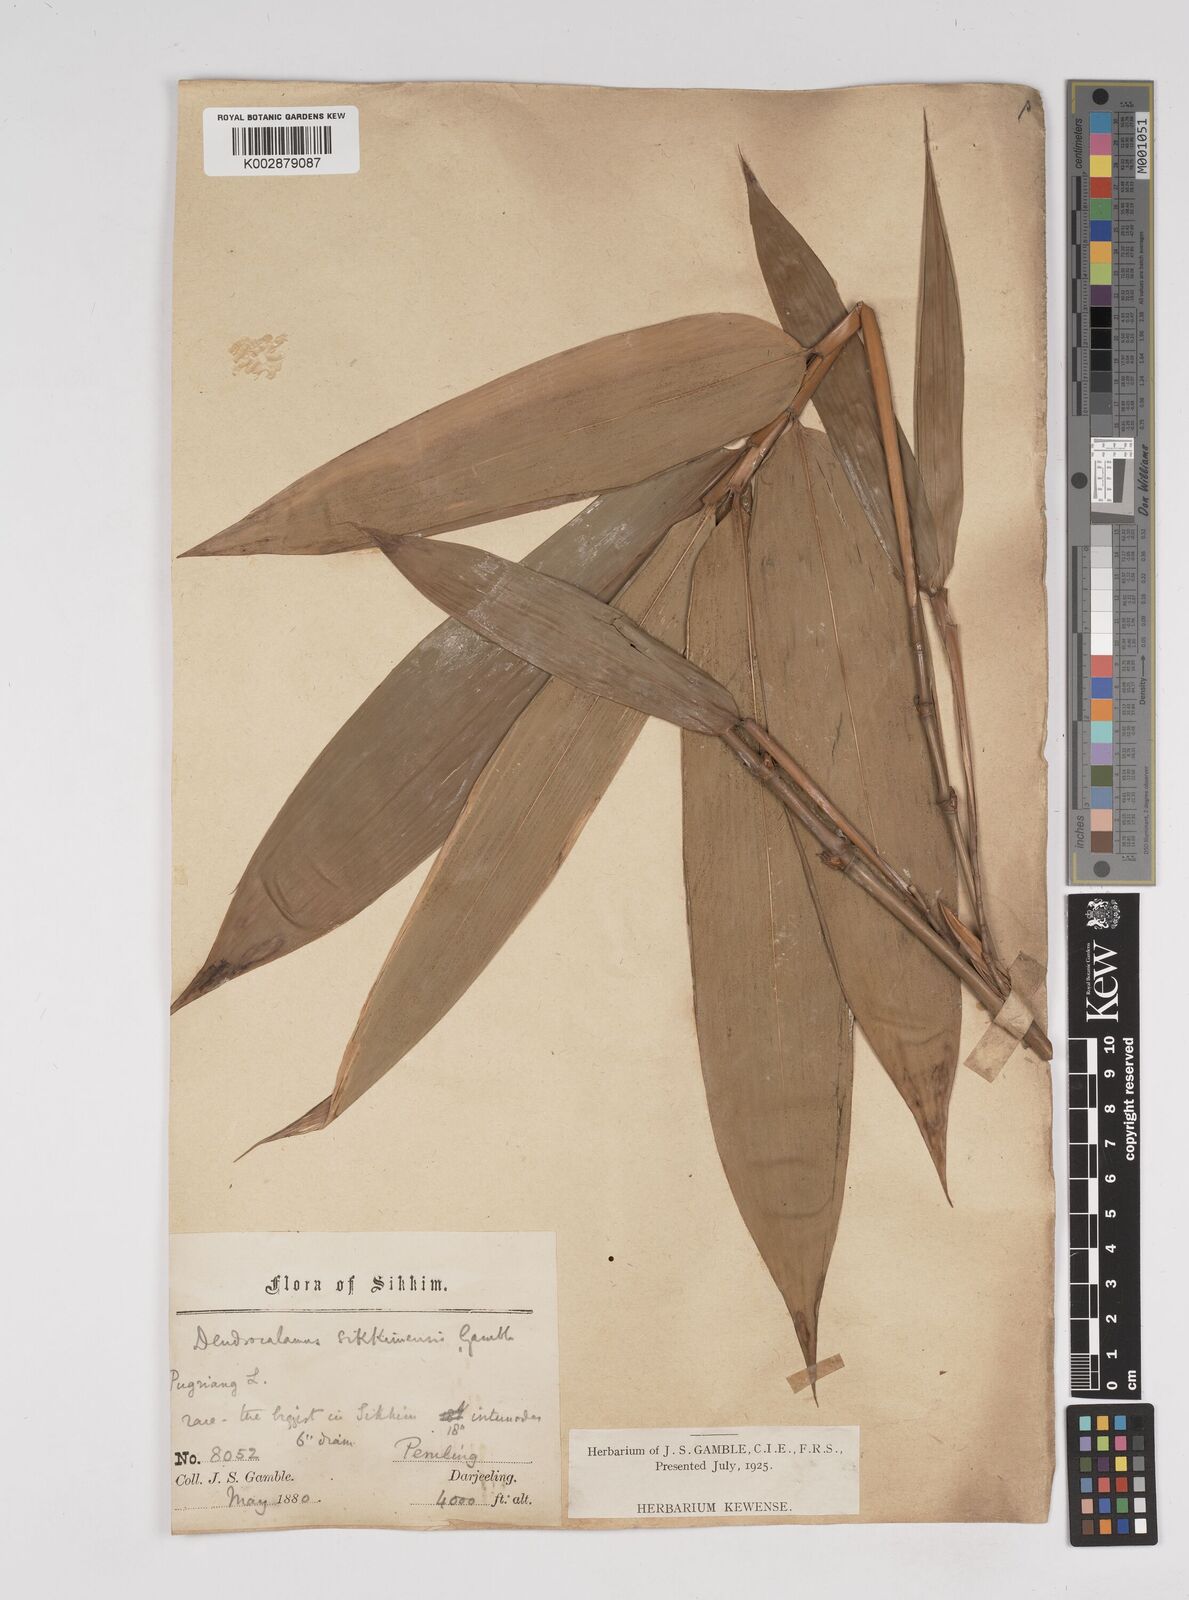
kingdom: Plantae
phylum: Tracheophyta
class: Liliopsida
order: Poales
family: Poaceae
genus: Dendrocalamus
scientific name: Dendrocalamus sikkimensis
